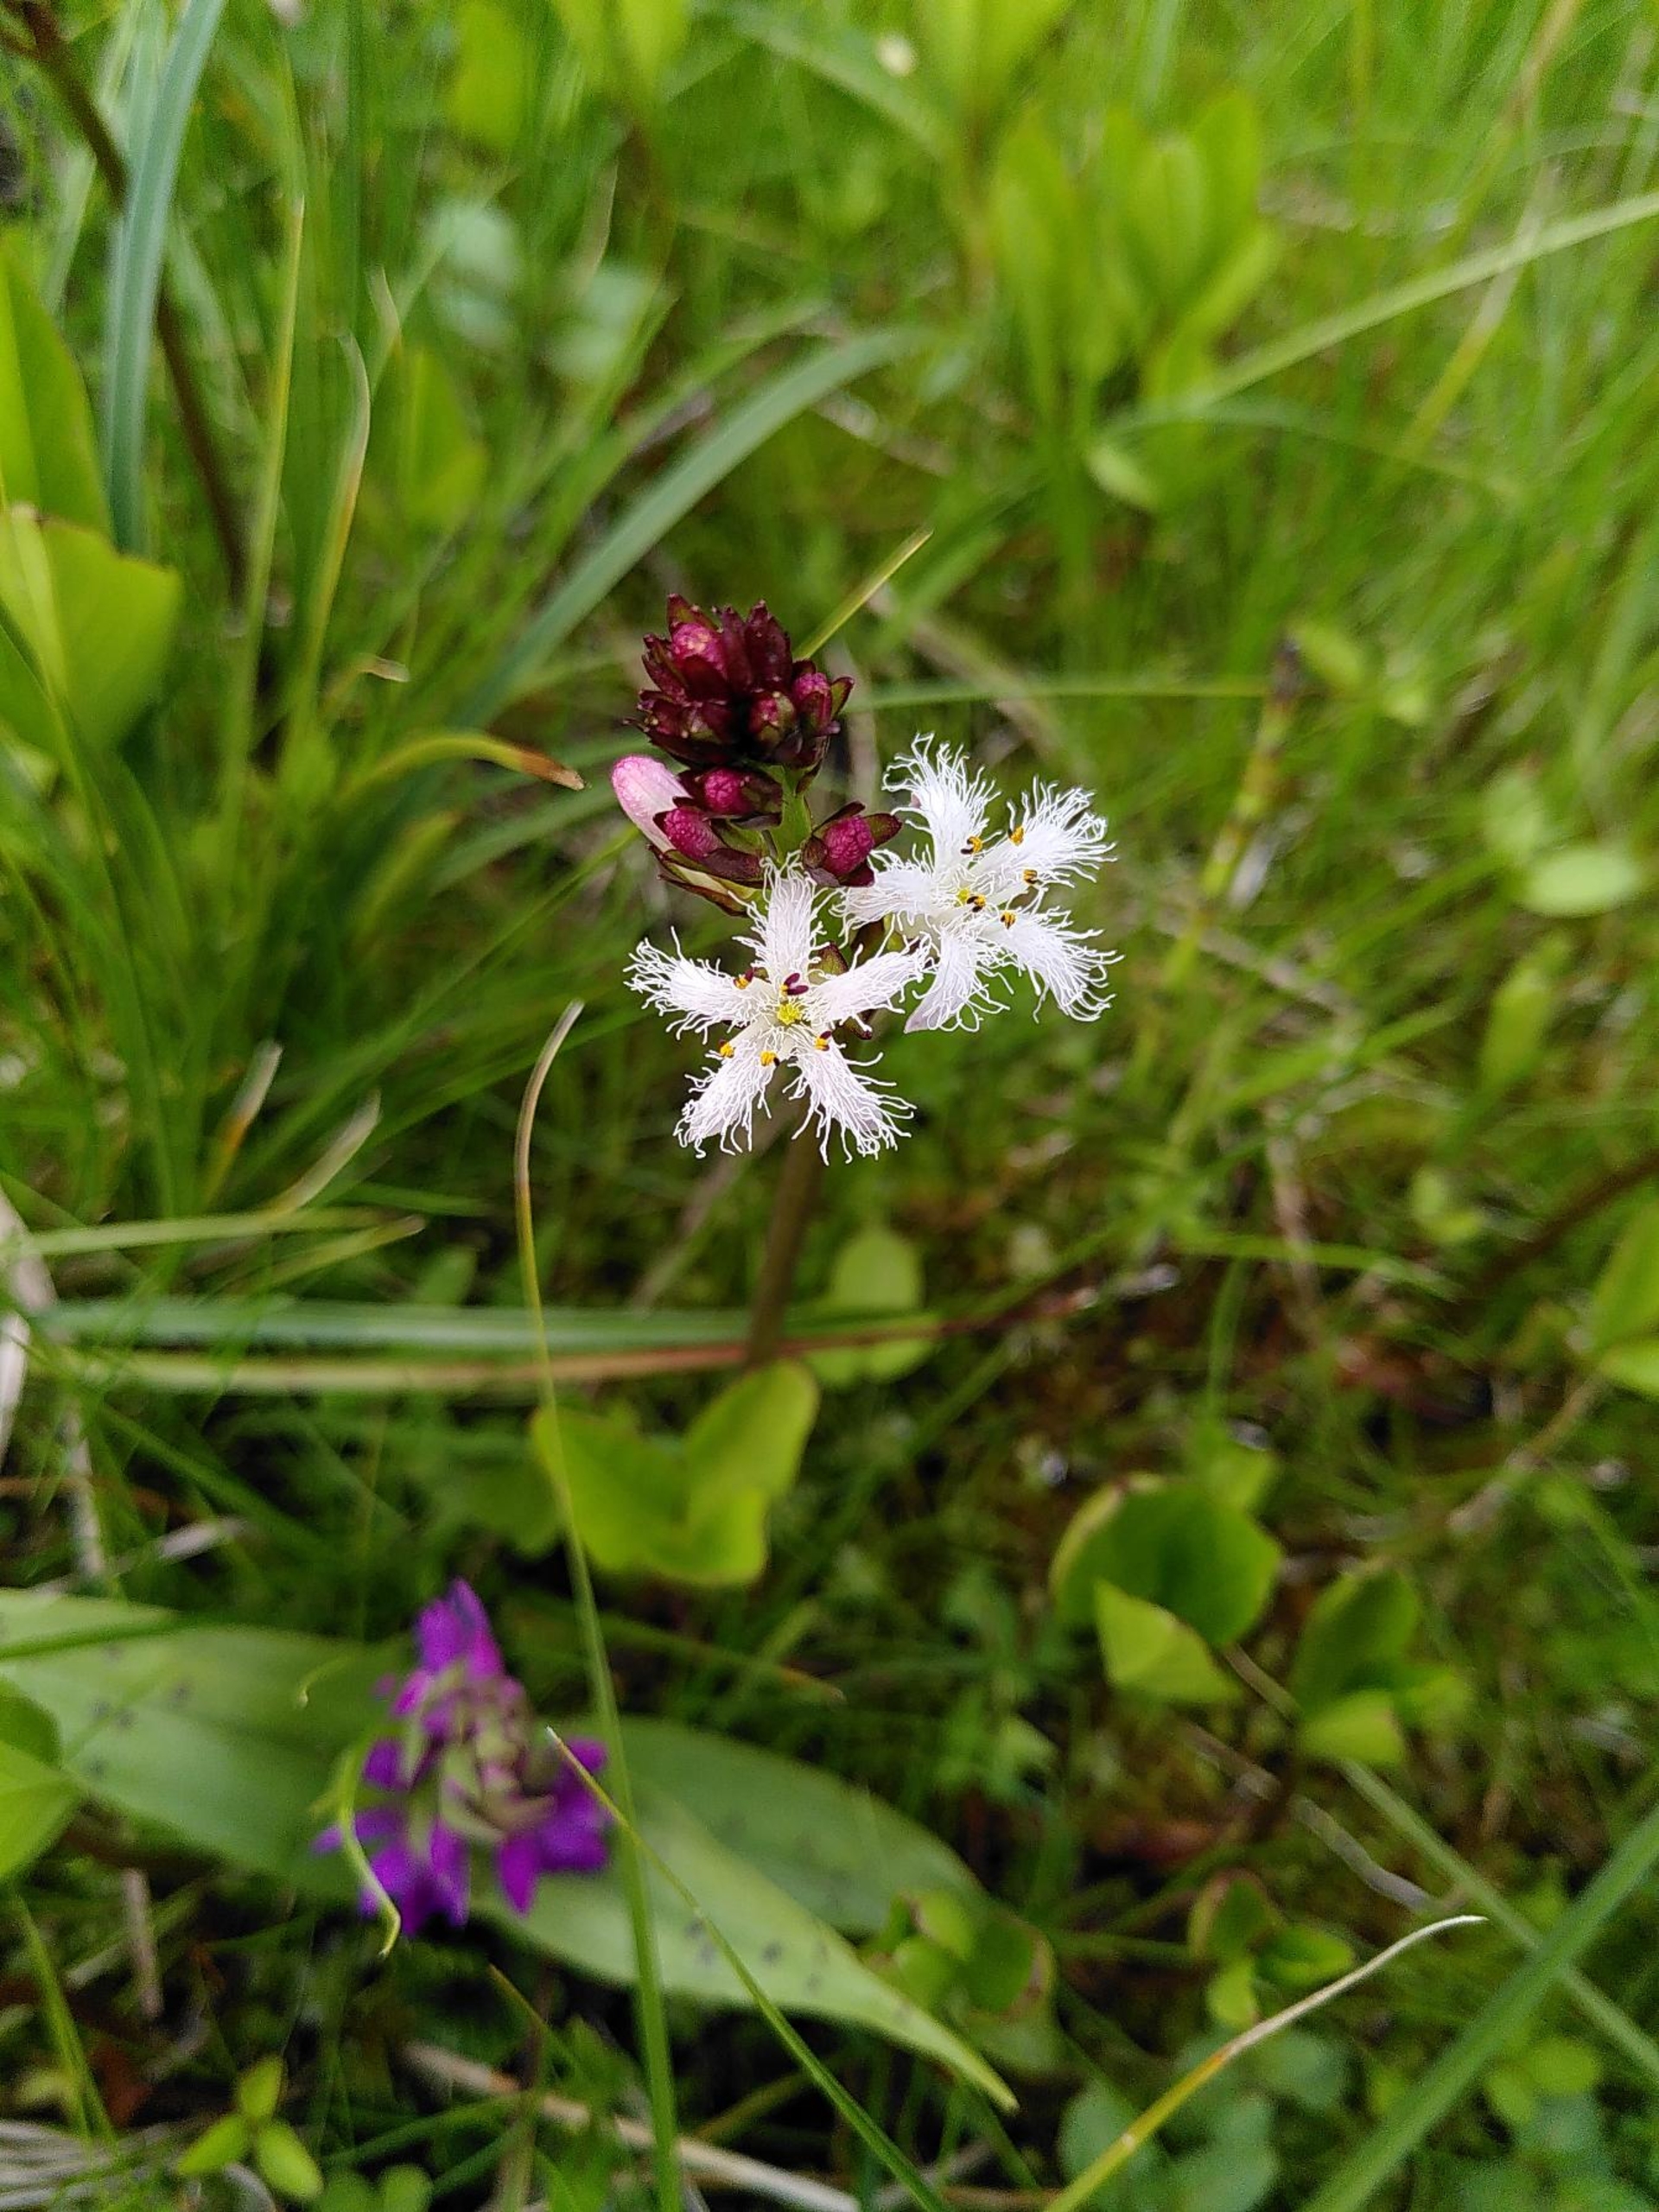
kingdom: Plantae
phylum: Tracheophyta
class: Magnoliopsida
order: Asterales
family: Menyanthaceae
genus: Menyanthes
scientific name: Menyanthes trifoliata
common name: Bukkeblad
